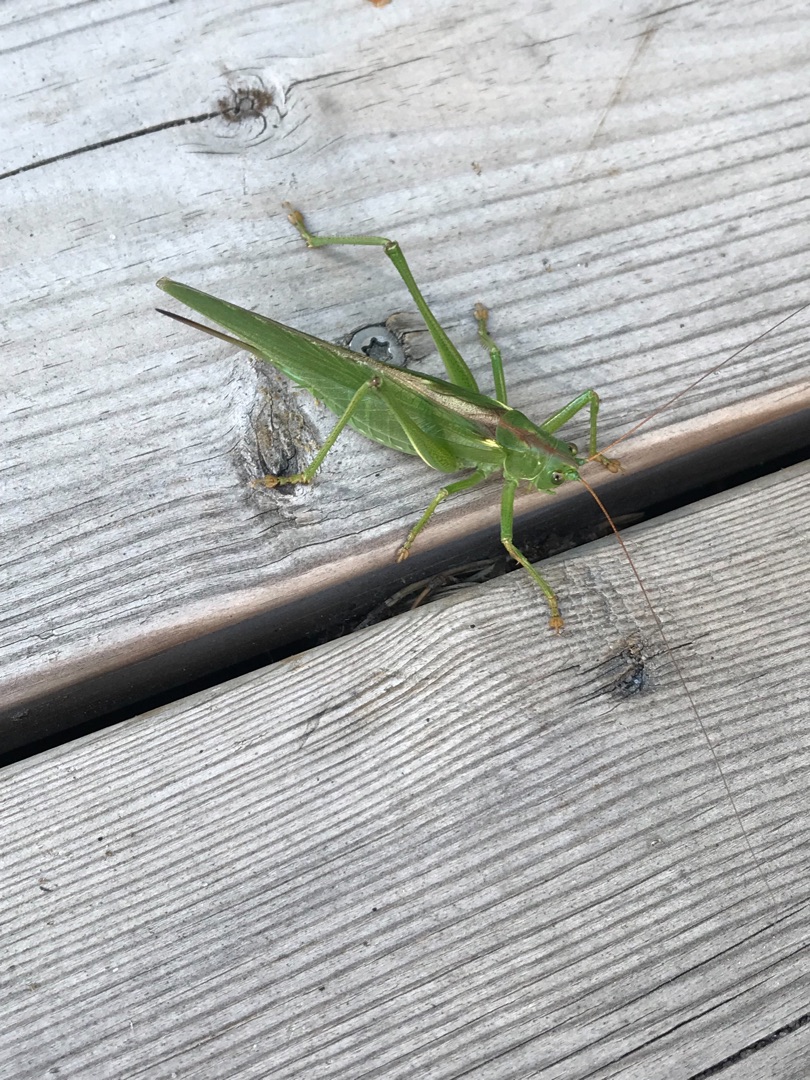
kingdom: Animalia
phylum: Arthropoda
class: Insecta
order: Orthoptera
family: Tettigoniidae
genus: Tettigonia
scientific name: Tettigonia viridissima
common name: Stor grøn løvgræshoppe
